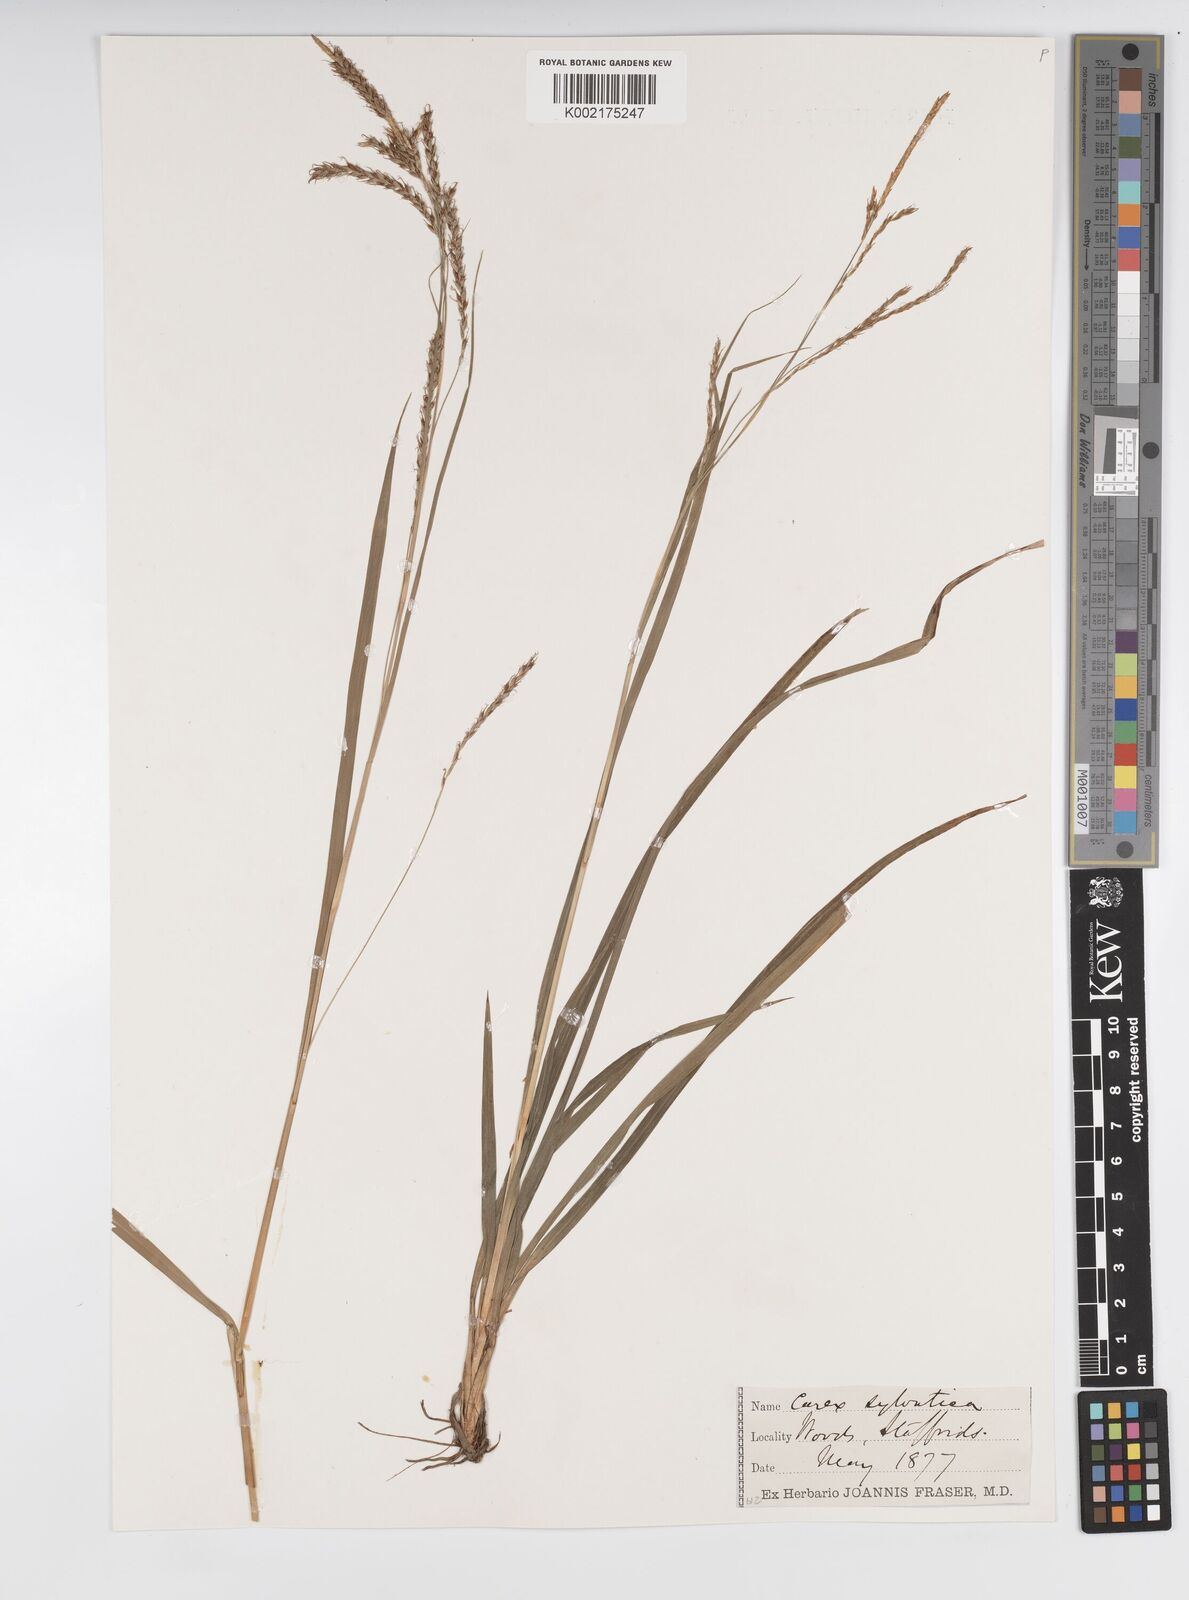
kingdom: Plantae
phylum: Tracheophyta
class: Liliopsida
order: Poales
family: Cyperaceae
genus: Carex
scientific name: Carex sylvatica
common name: Wood-sedge
